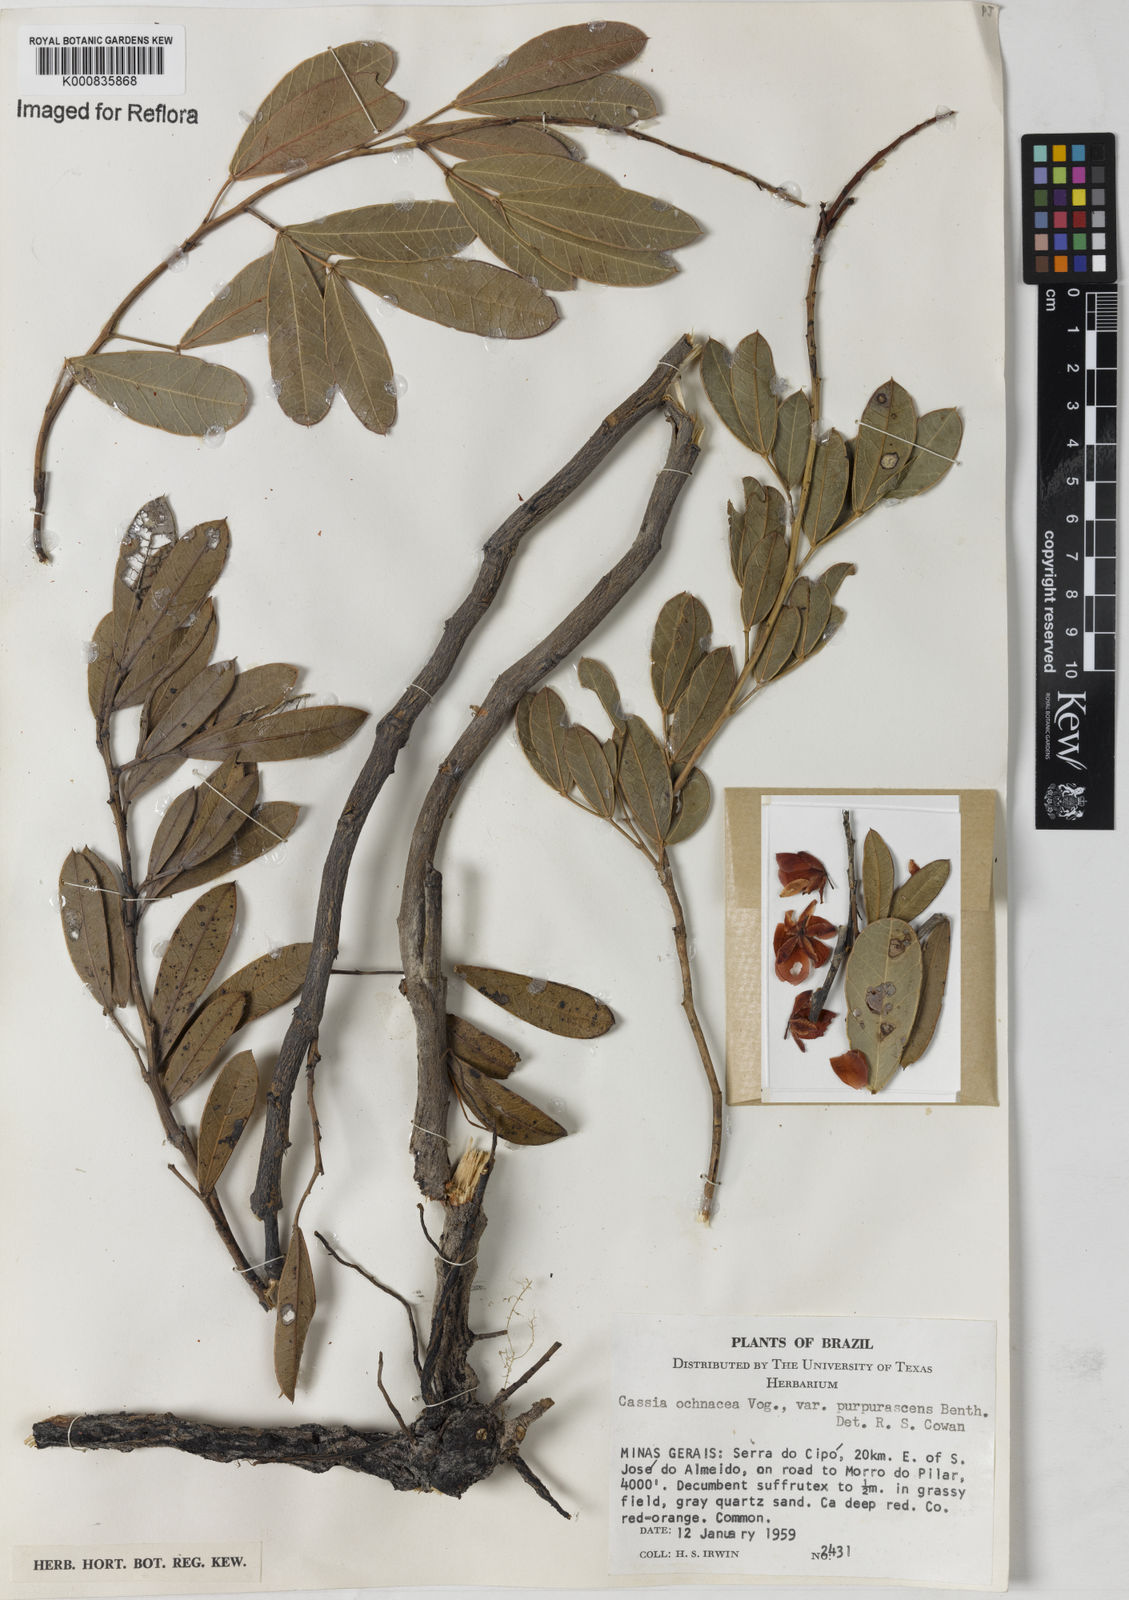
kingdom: Plantae
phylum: Tracheophyta
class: Magnoliopsida
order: Fabales
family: Fabaceae
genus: Chamaecrista
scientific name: Chamaecrista ochnacea
